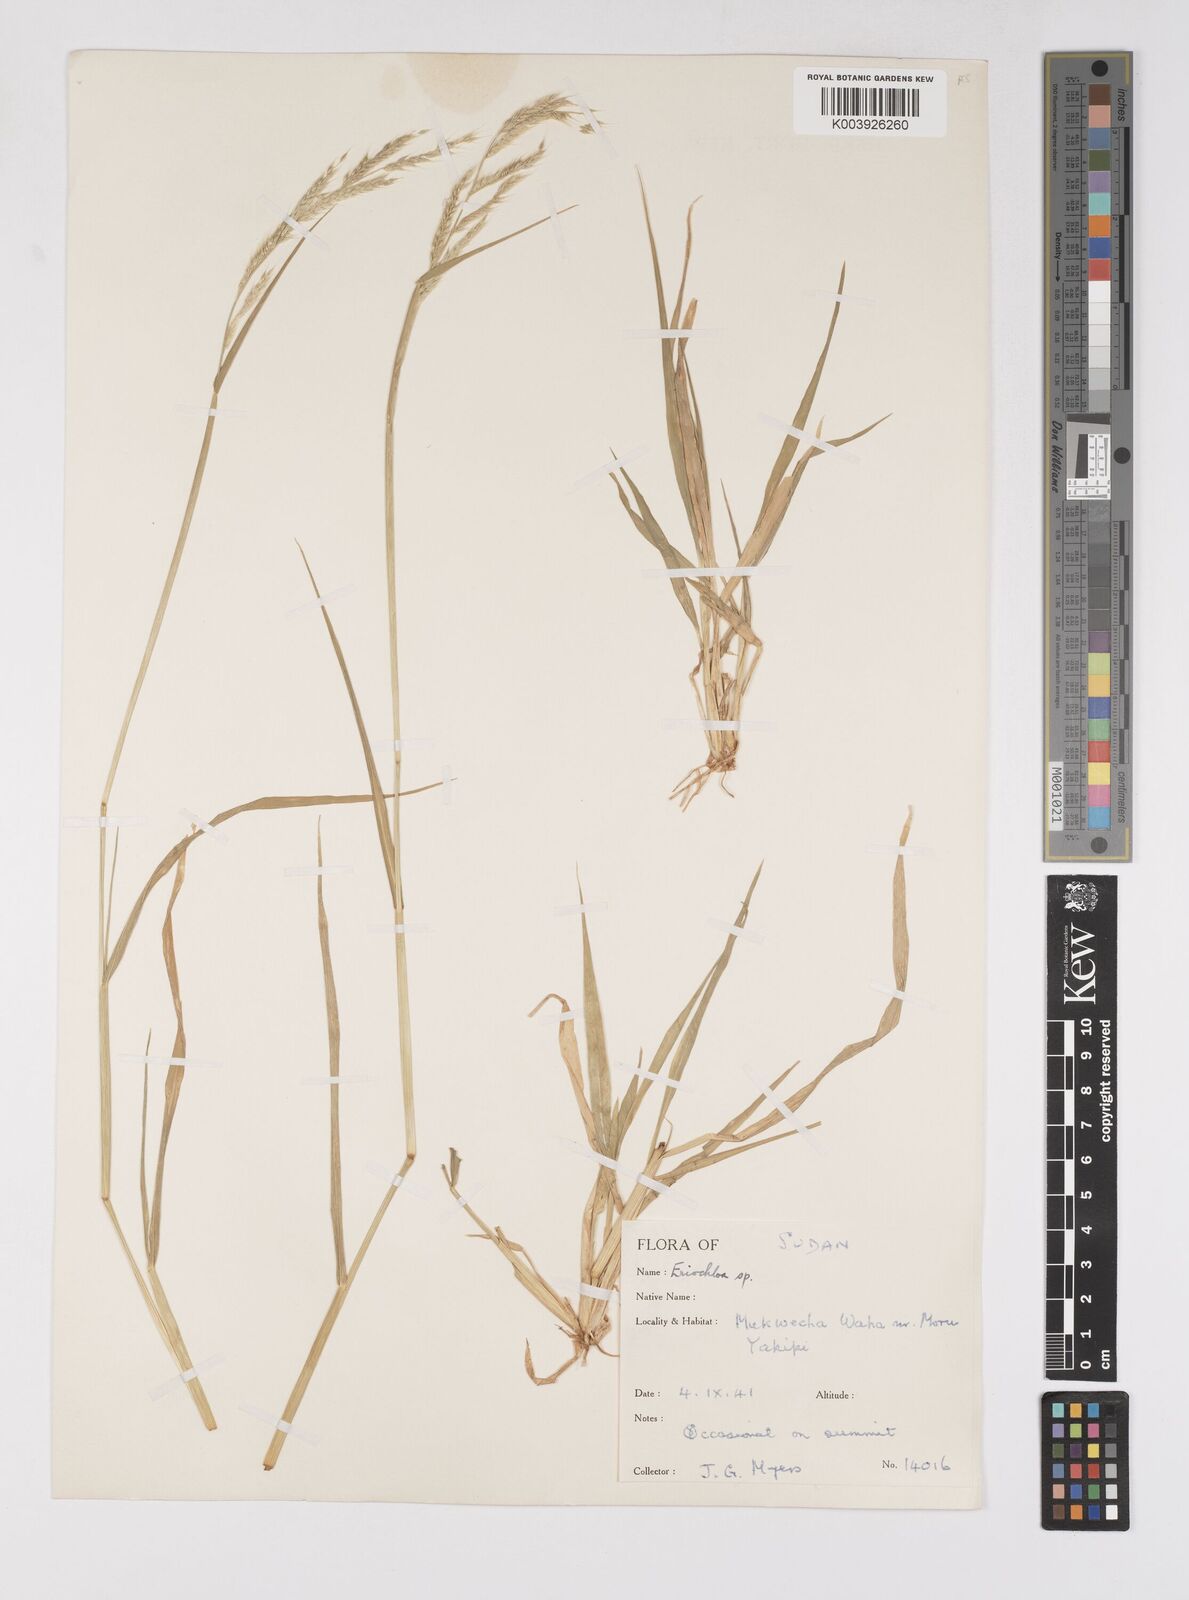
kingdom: Plantae
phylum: Tracheophyta
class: Liliopsida
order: Poales
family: Poaceae
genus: Eriochloa
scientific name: Eriochloa barbatus
